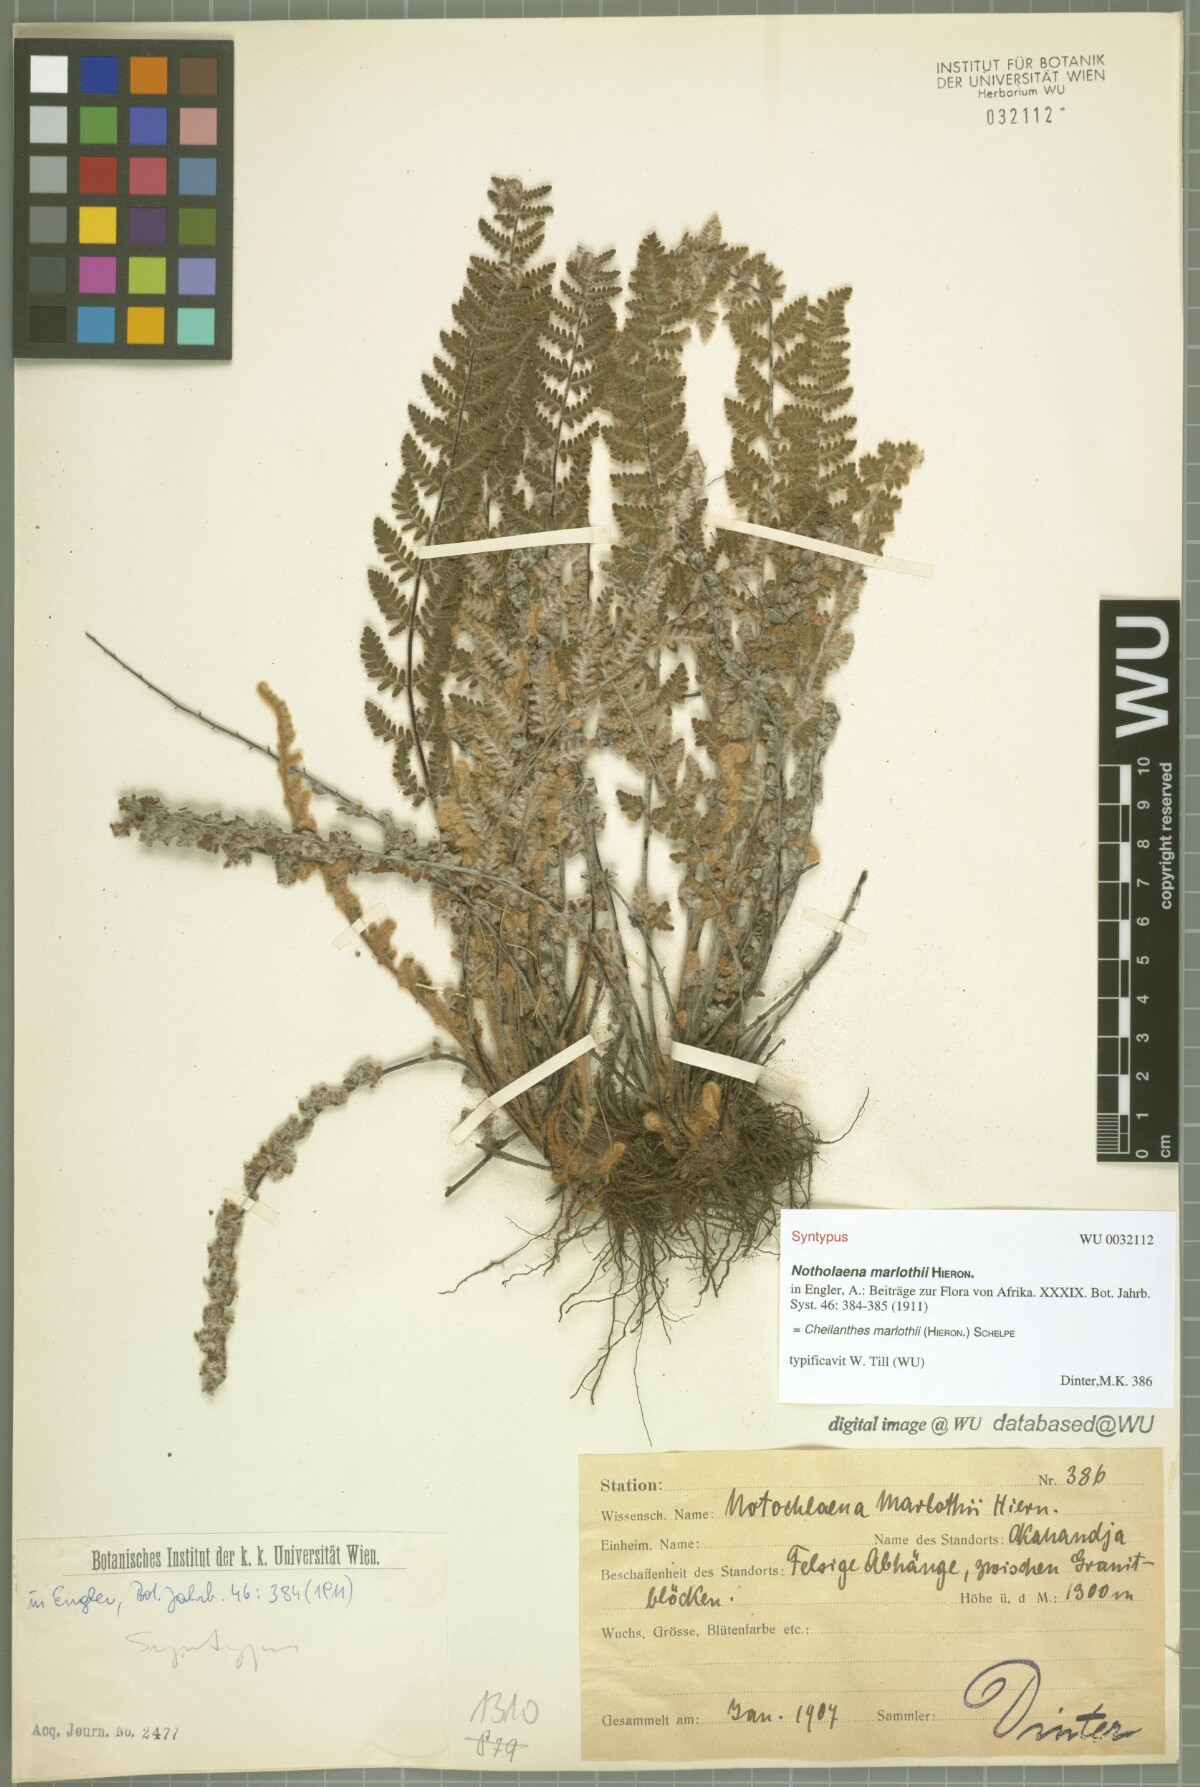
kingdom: Plantae
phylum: Tracheophyta
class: Polypodiopsida
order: Polypodiales
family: Pteridaceae
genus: Cheilanthes
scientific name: Cheilanthes marlothii
